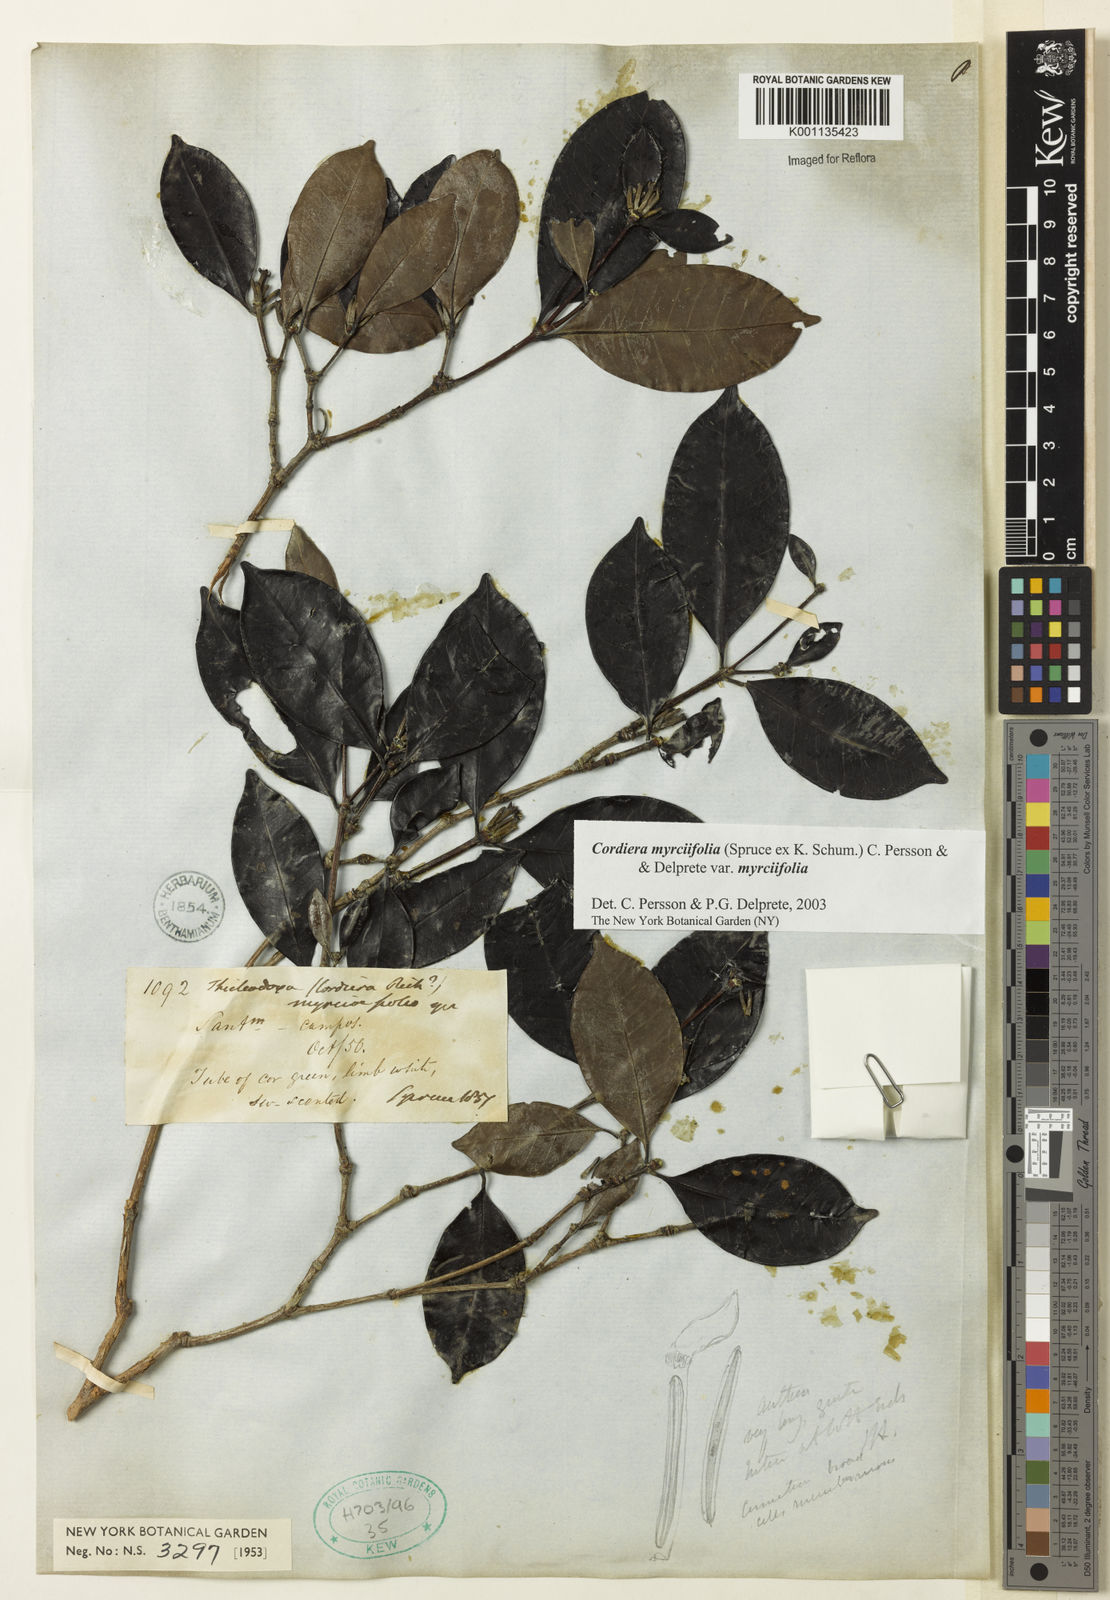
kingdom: Plantae
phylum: Tracheophyta
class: Magnoliopsida
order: Gentianales
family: Rubiaceae
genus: Cordiera
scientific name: Cordiera myrciifolia
